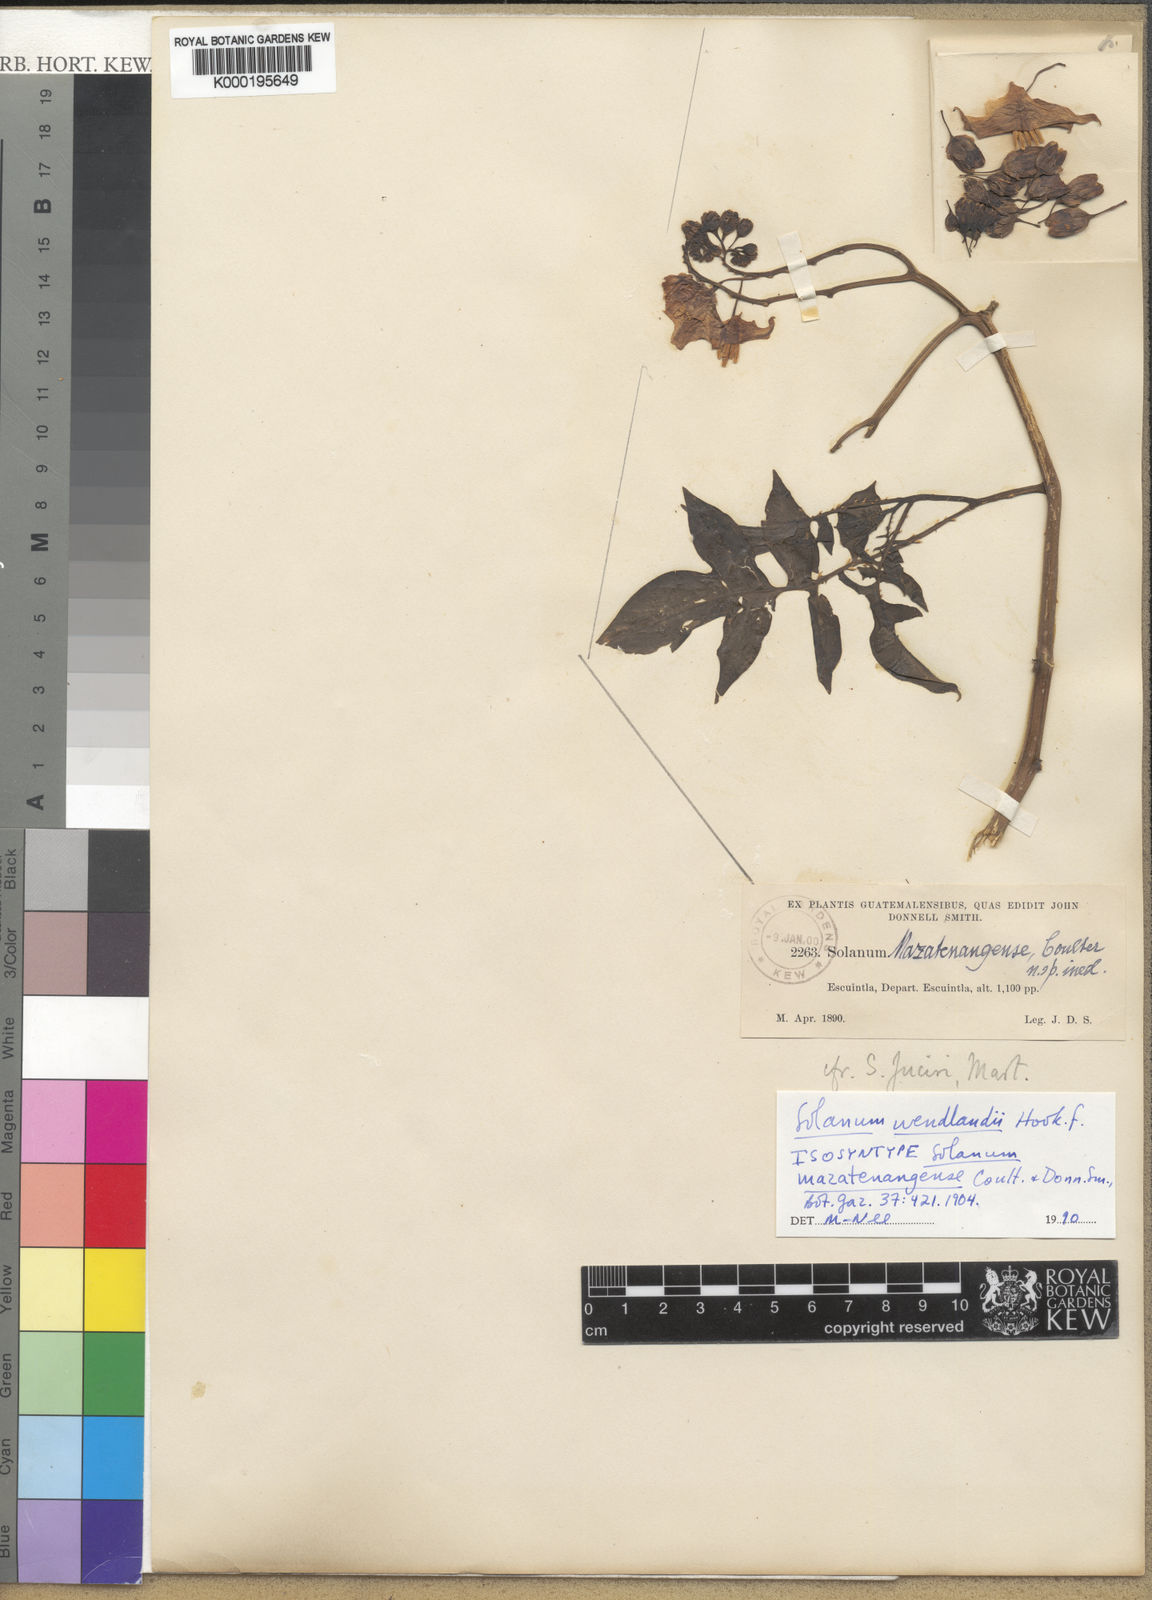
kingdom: Plantae
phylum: Tracheophyta
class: Magnoliopsida
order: Solanales
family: Solanaceae
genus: Solanum
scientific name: Solanum wendlandii
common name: Costa rican nightshade
